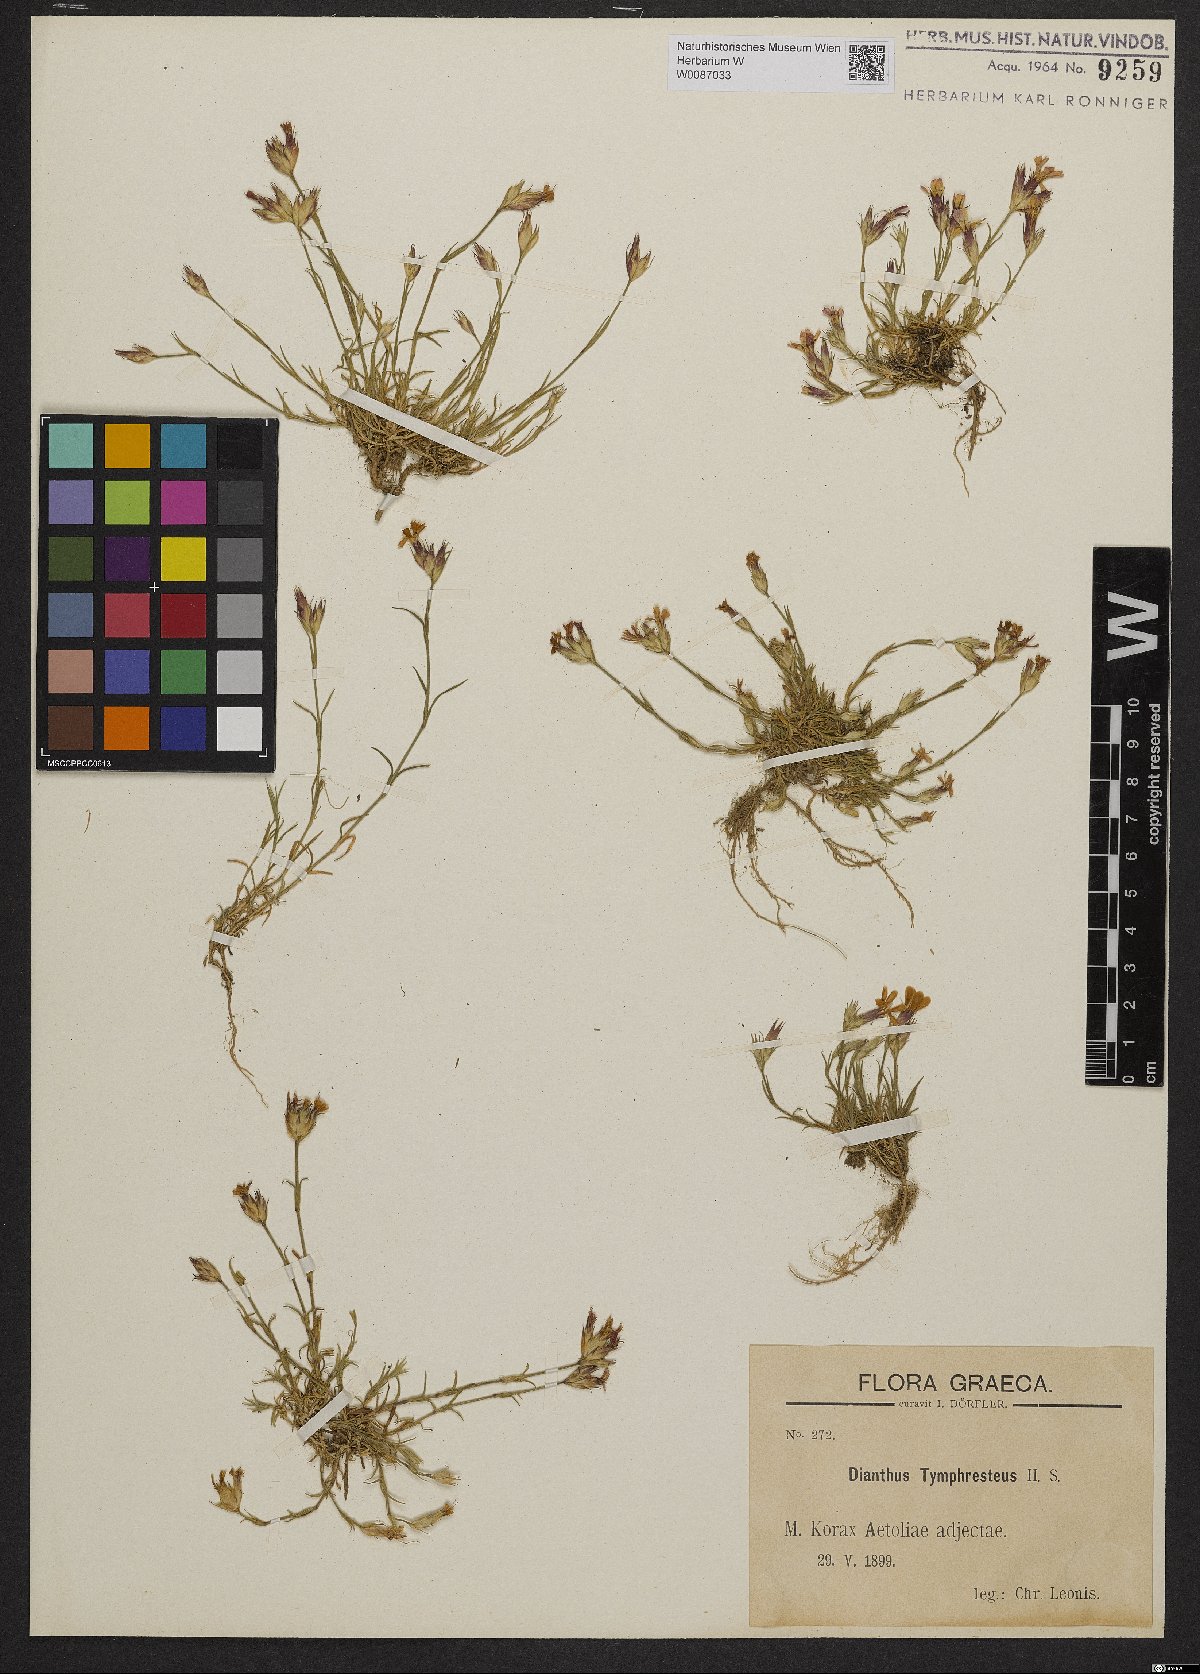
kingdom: Plantae
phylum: Tracheophyta
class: Magnoliopsida
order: Caryophyllales
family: Caryophyllaceae
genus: Dianthus
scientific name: Dianthus tymphresteus
